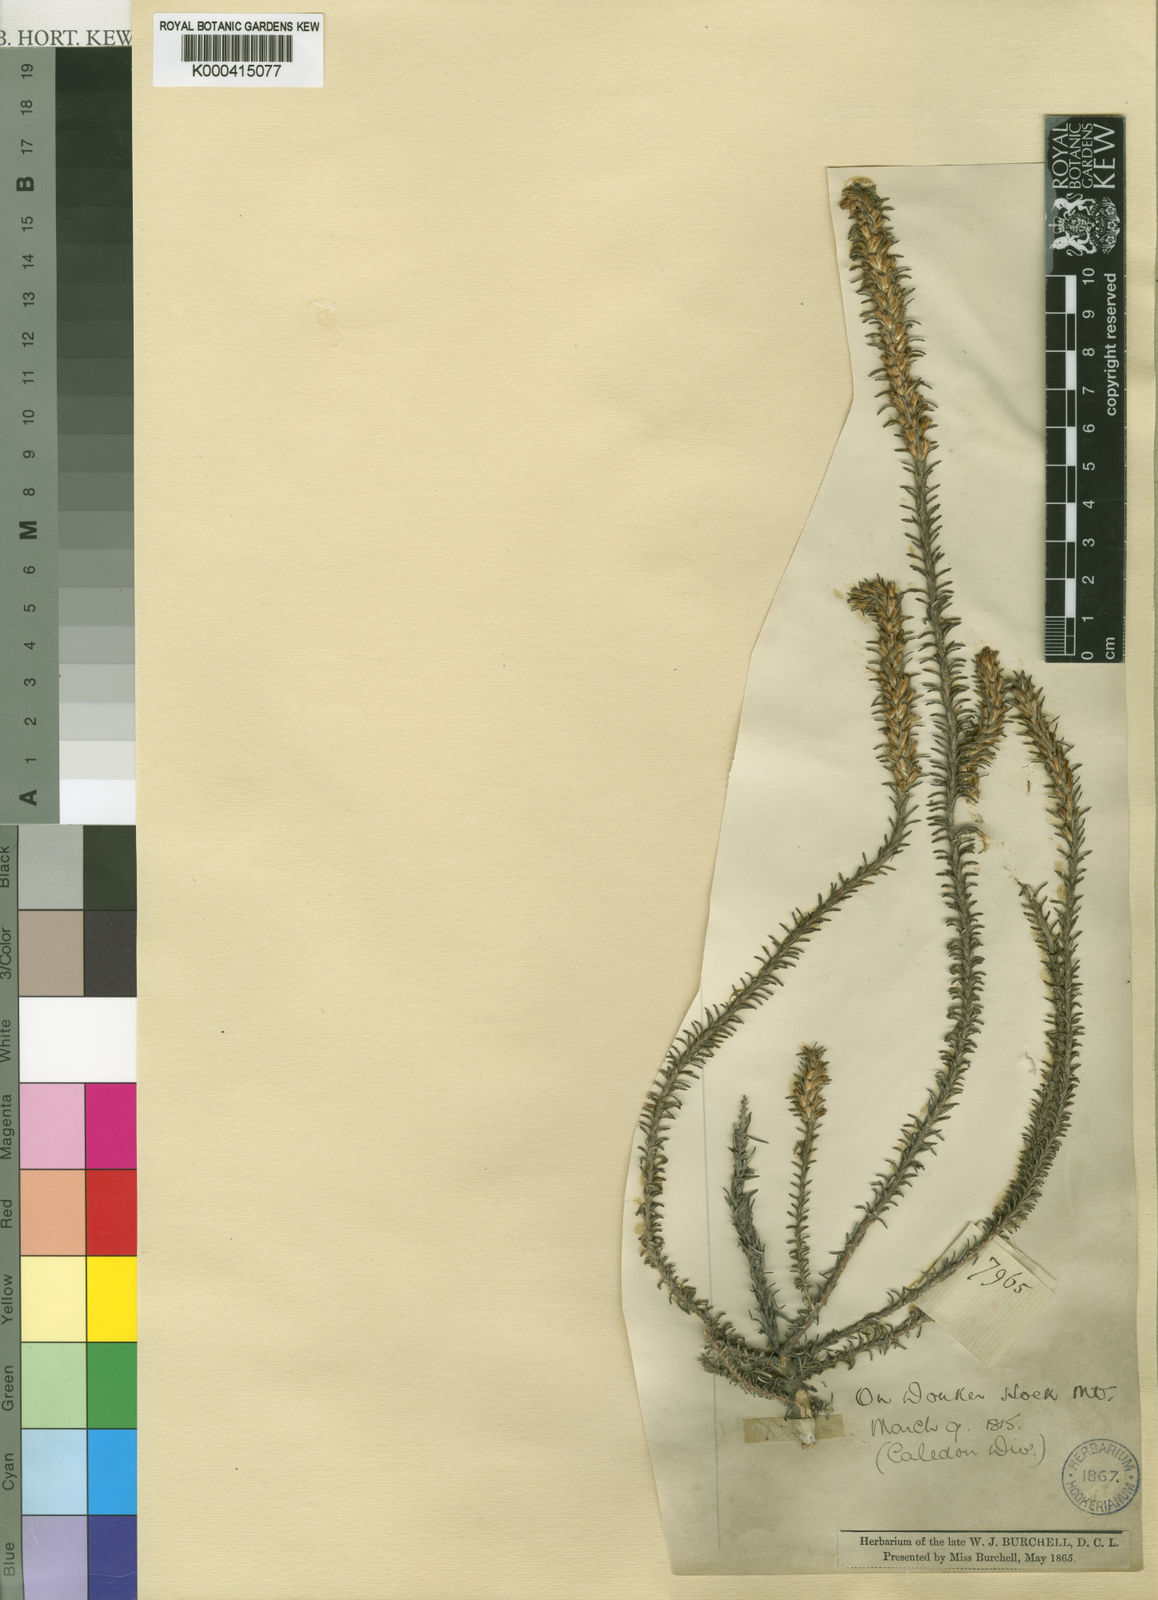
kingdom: Plantae
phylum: Tracheophyta
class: Magnoliopsida
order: Asterales
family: Asteraceae
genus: Myrovernix
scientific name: Myrovernix scaber
